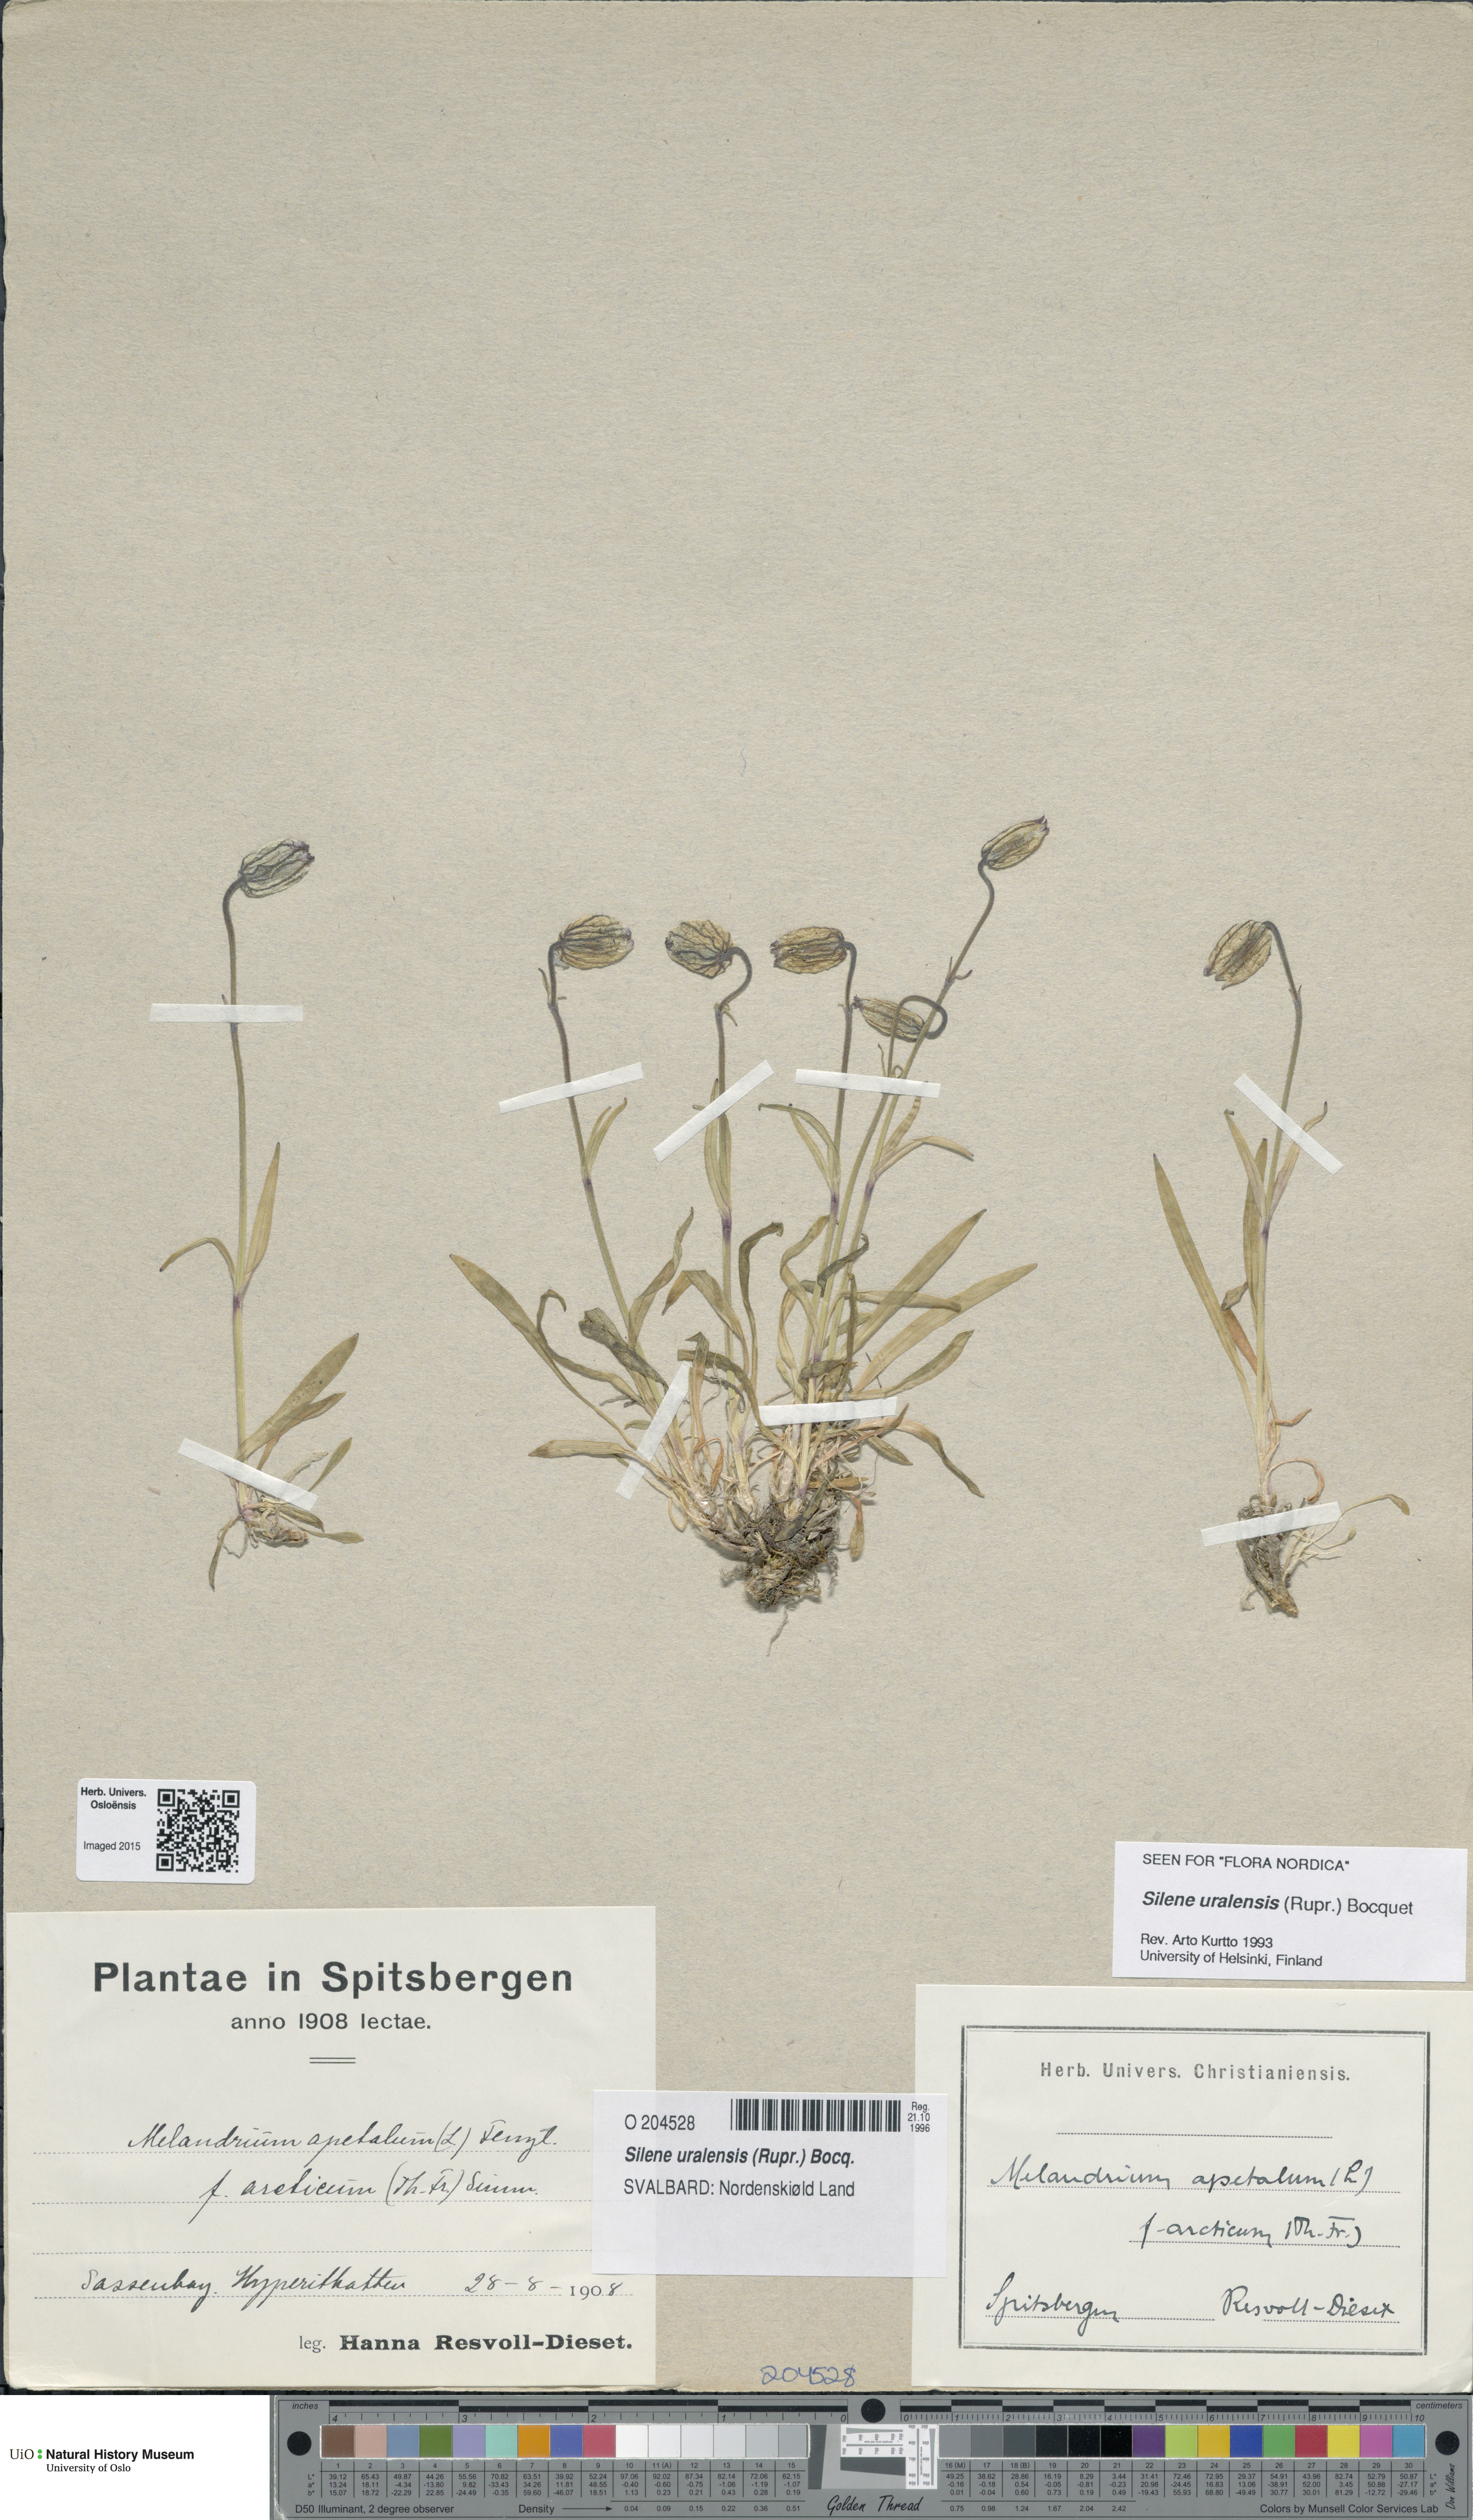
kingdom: Plantae
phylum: Tracheophyta
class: Magnoliopsida
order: Caryophyllales
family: Caryophyllaceae
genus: Silene
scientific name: Silene uralensis
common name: Nodding campion
